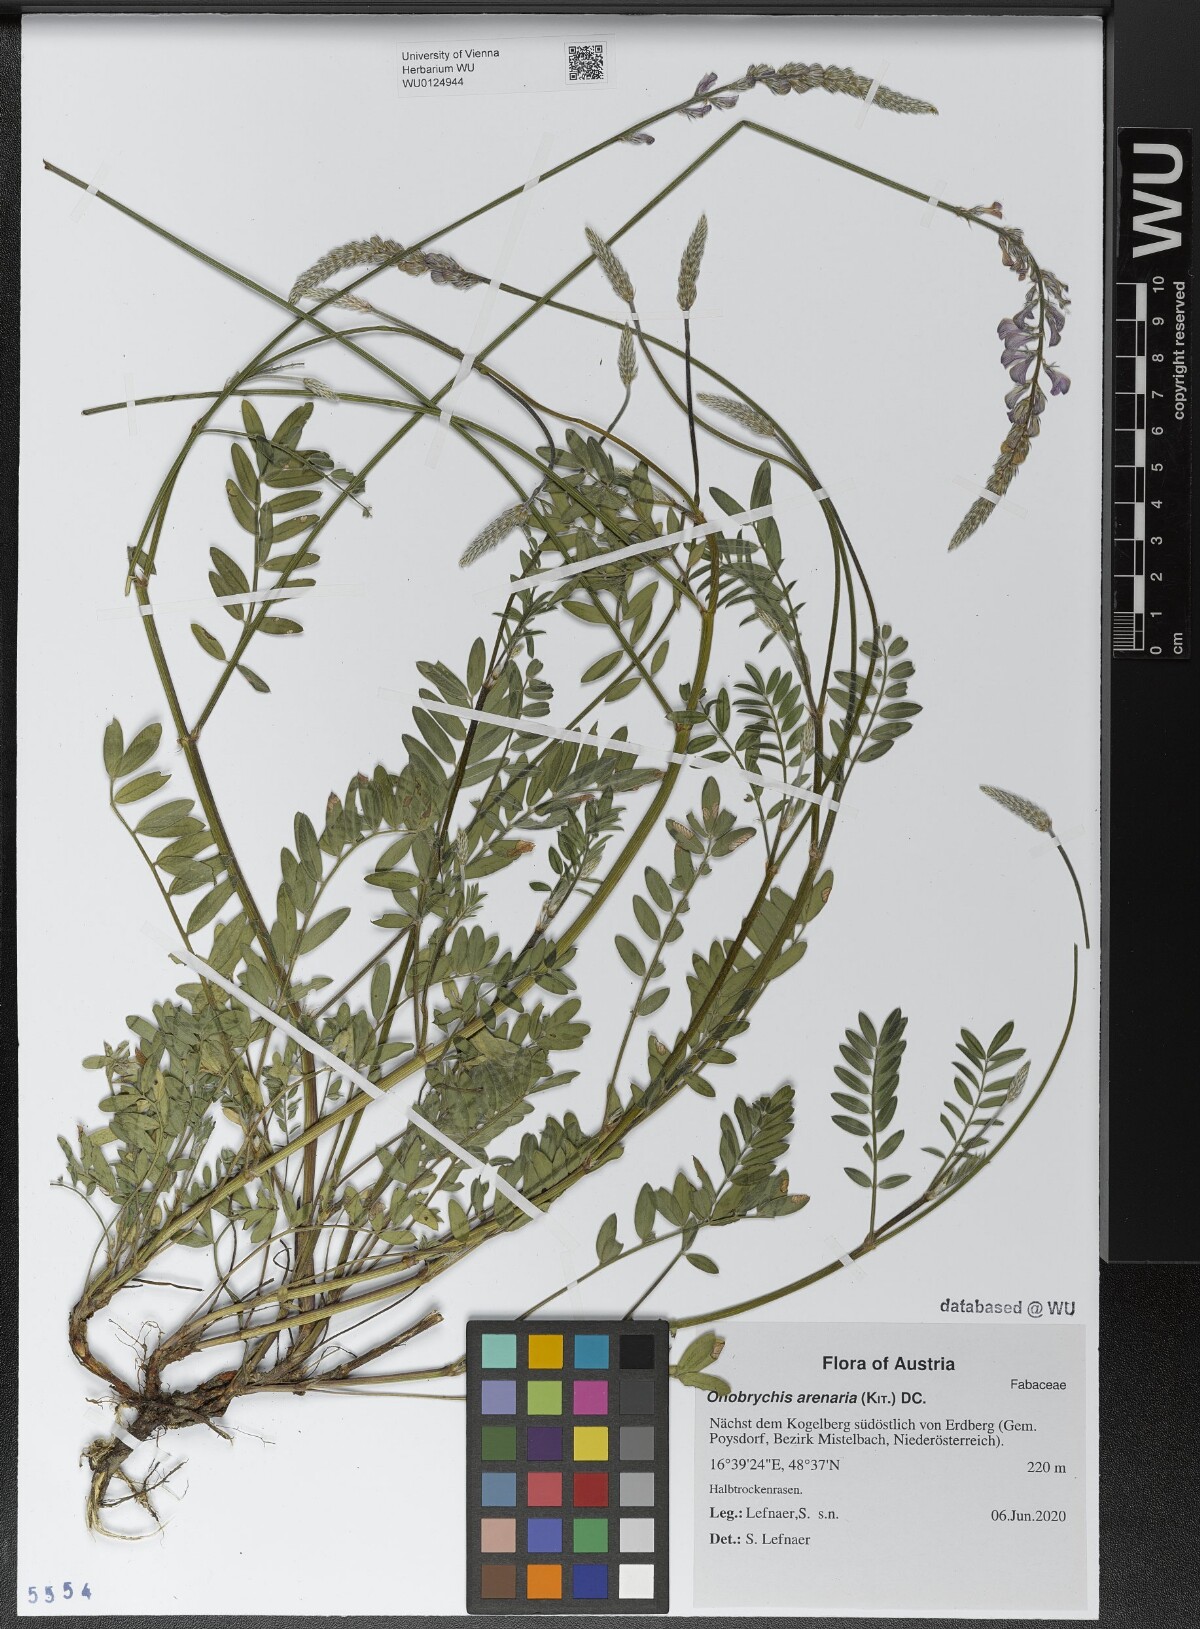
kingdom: Plantae
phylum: Tracheophyta
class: Magnoliopsida
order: Fabales
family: Fabaceae
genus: Onobrychis
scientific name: Onobrychis arenaria
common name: Sand esparcet
